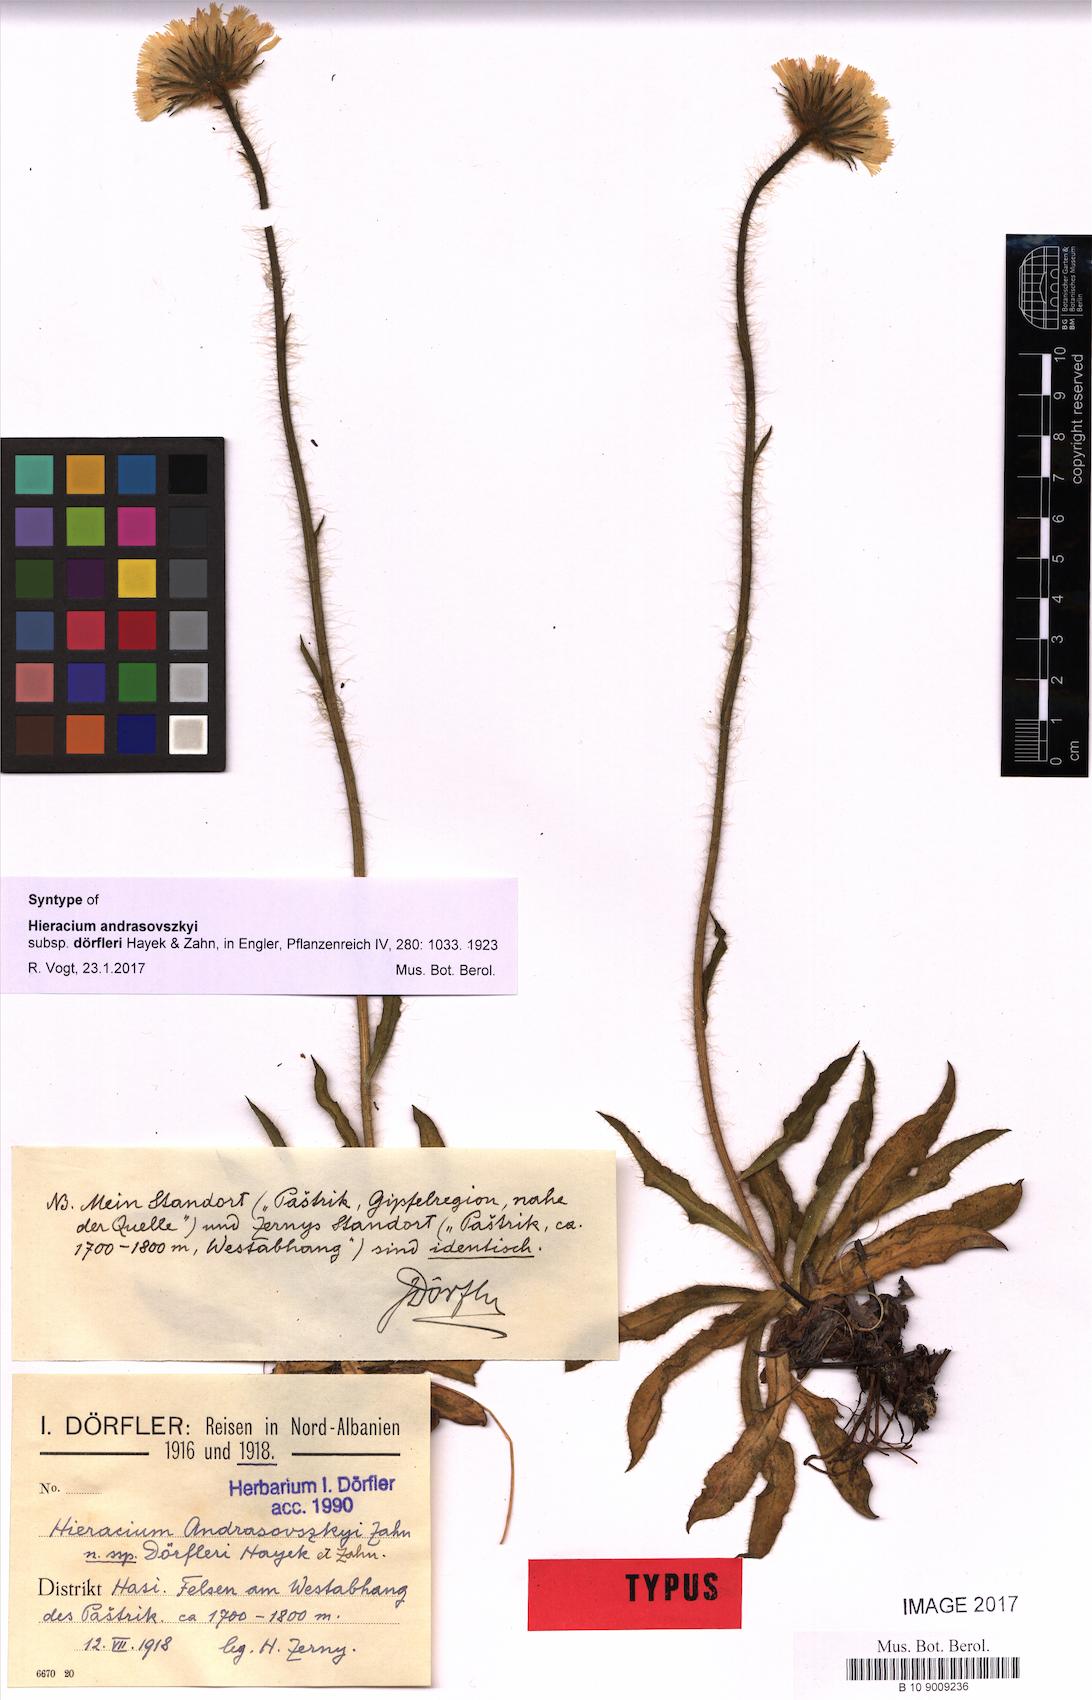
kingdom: Plantae
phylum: Tracheophyta
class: Magnoliopsida
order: Asterales
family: Asteraceae
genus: Hieracium
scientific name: Hieracium andrasovszkyi
